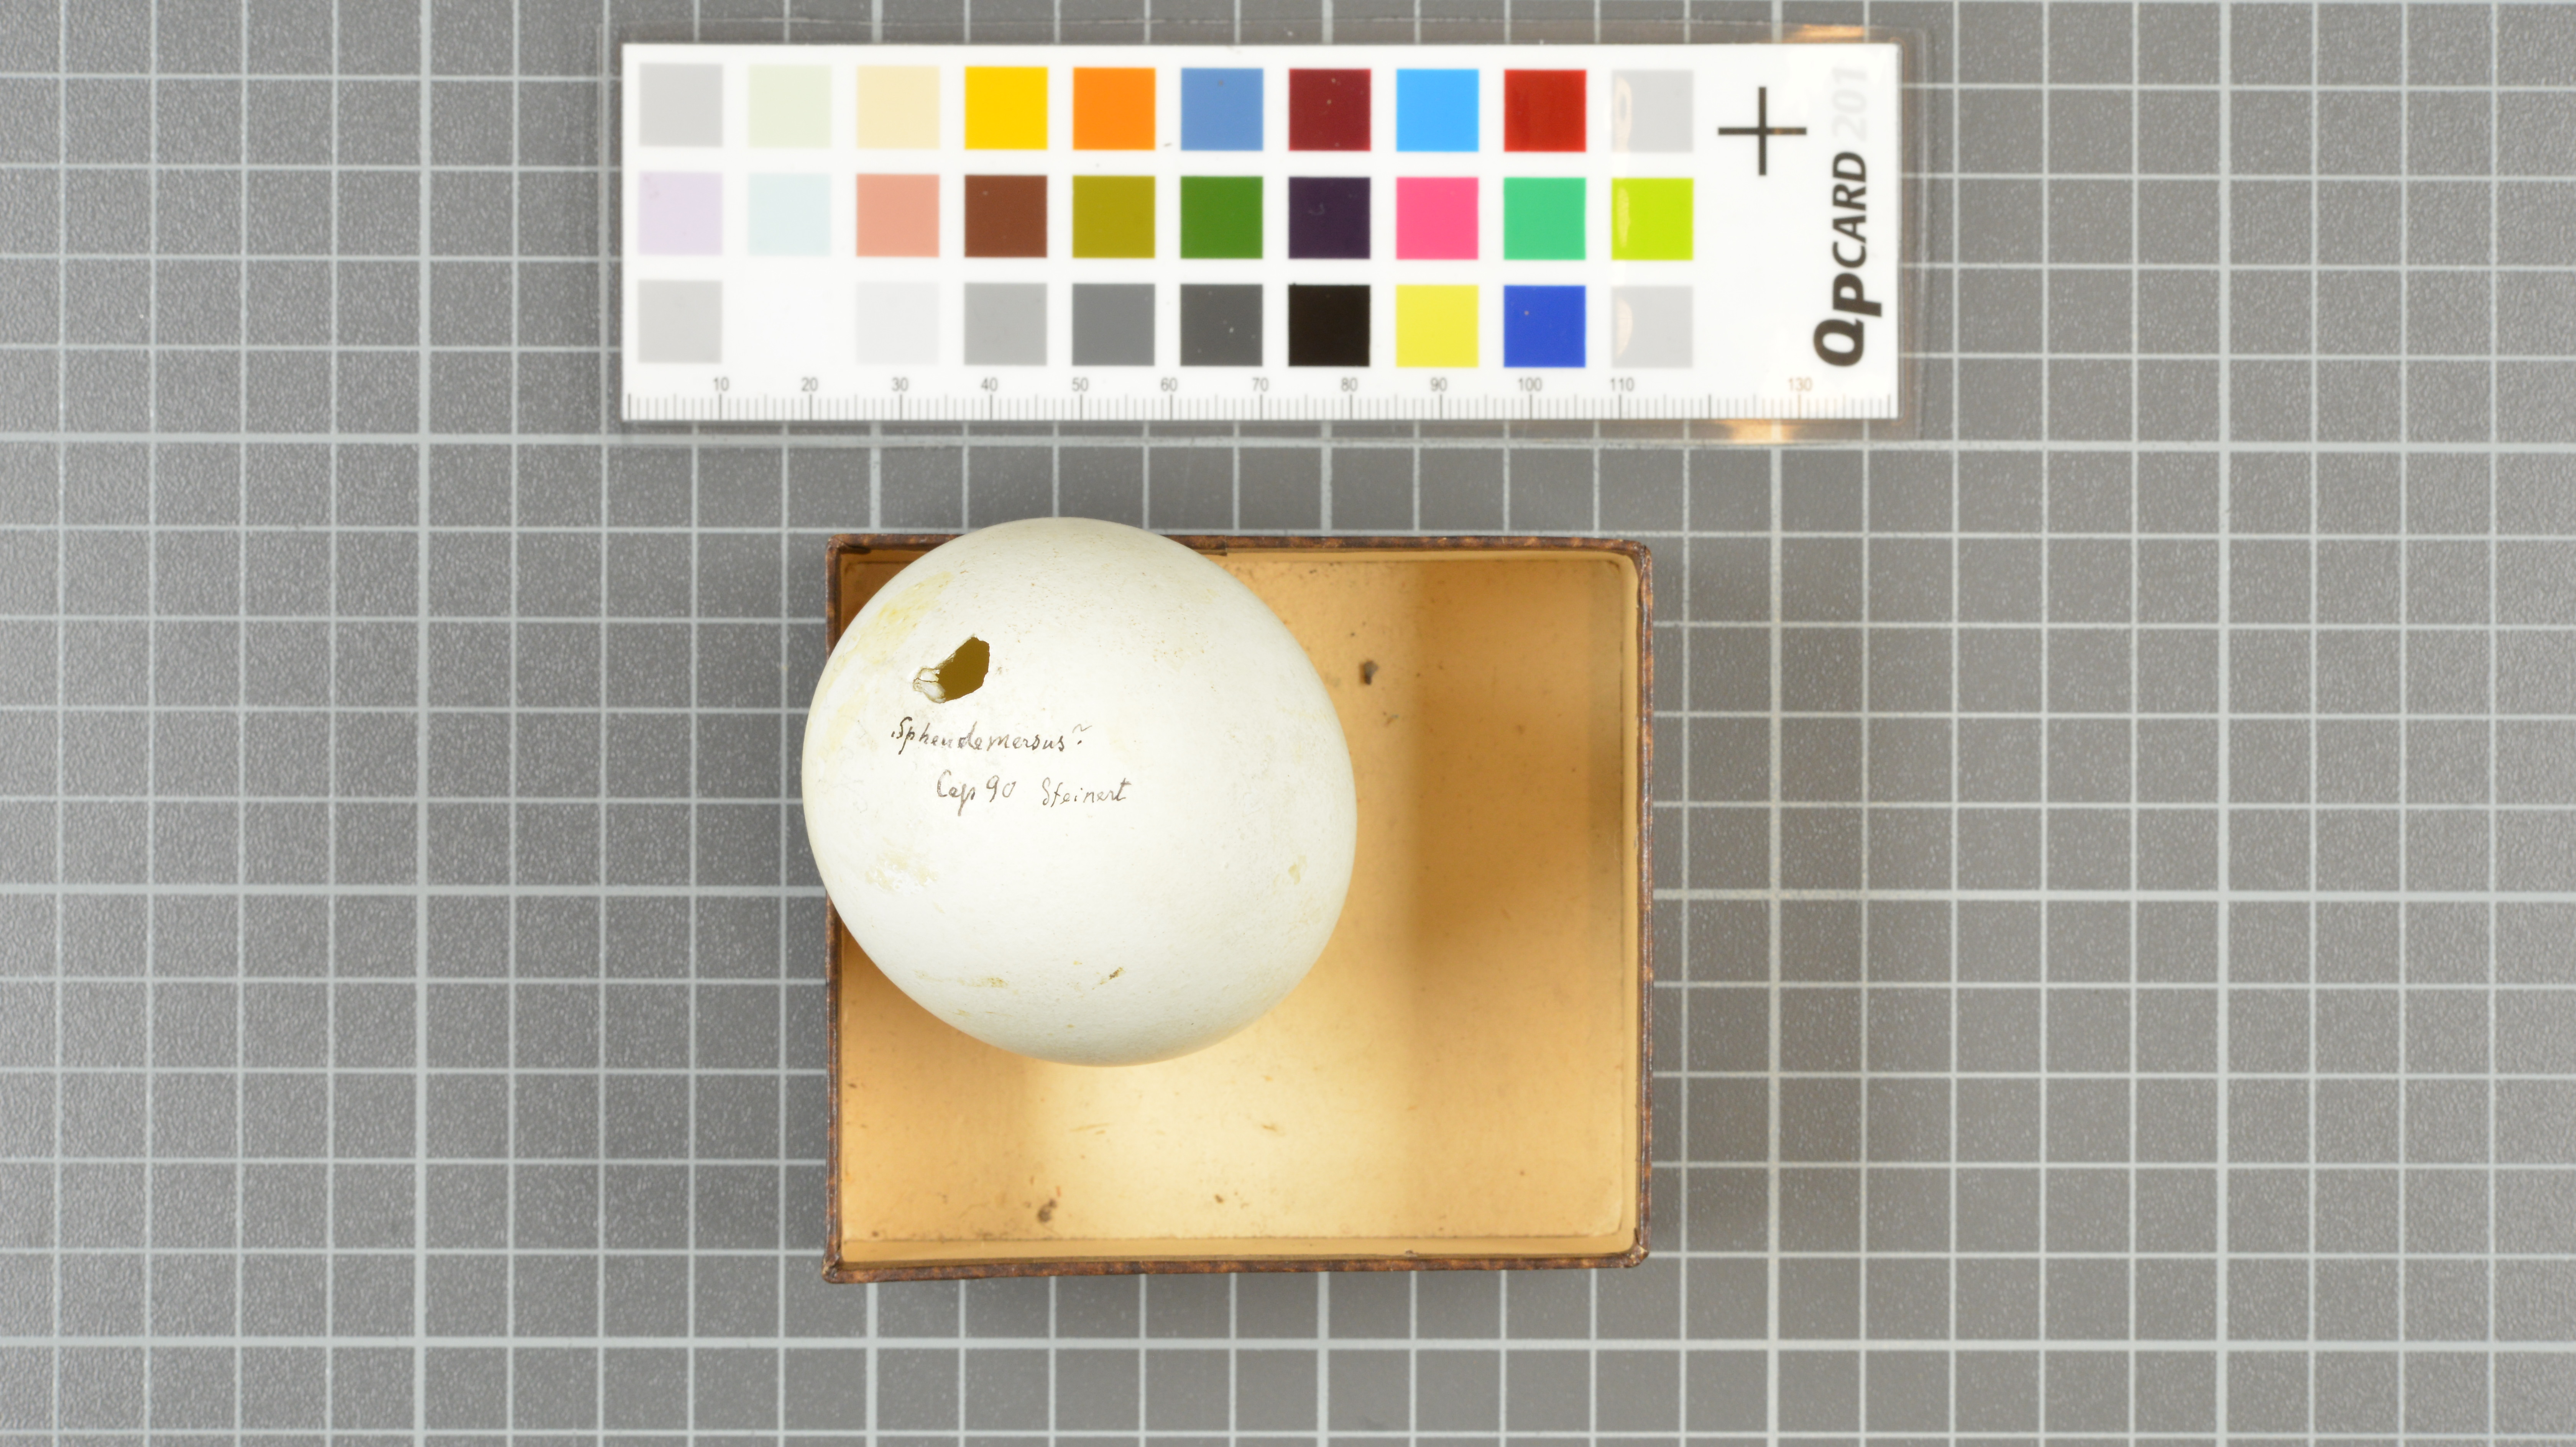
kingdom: Animalia
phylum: Chordata
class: Aves
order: Sphenisciformes
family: Spheniscidae
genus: Spheniscus
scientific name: Spheniscus demersus
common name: African penguin
